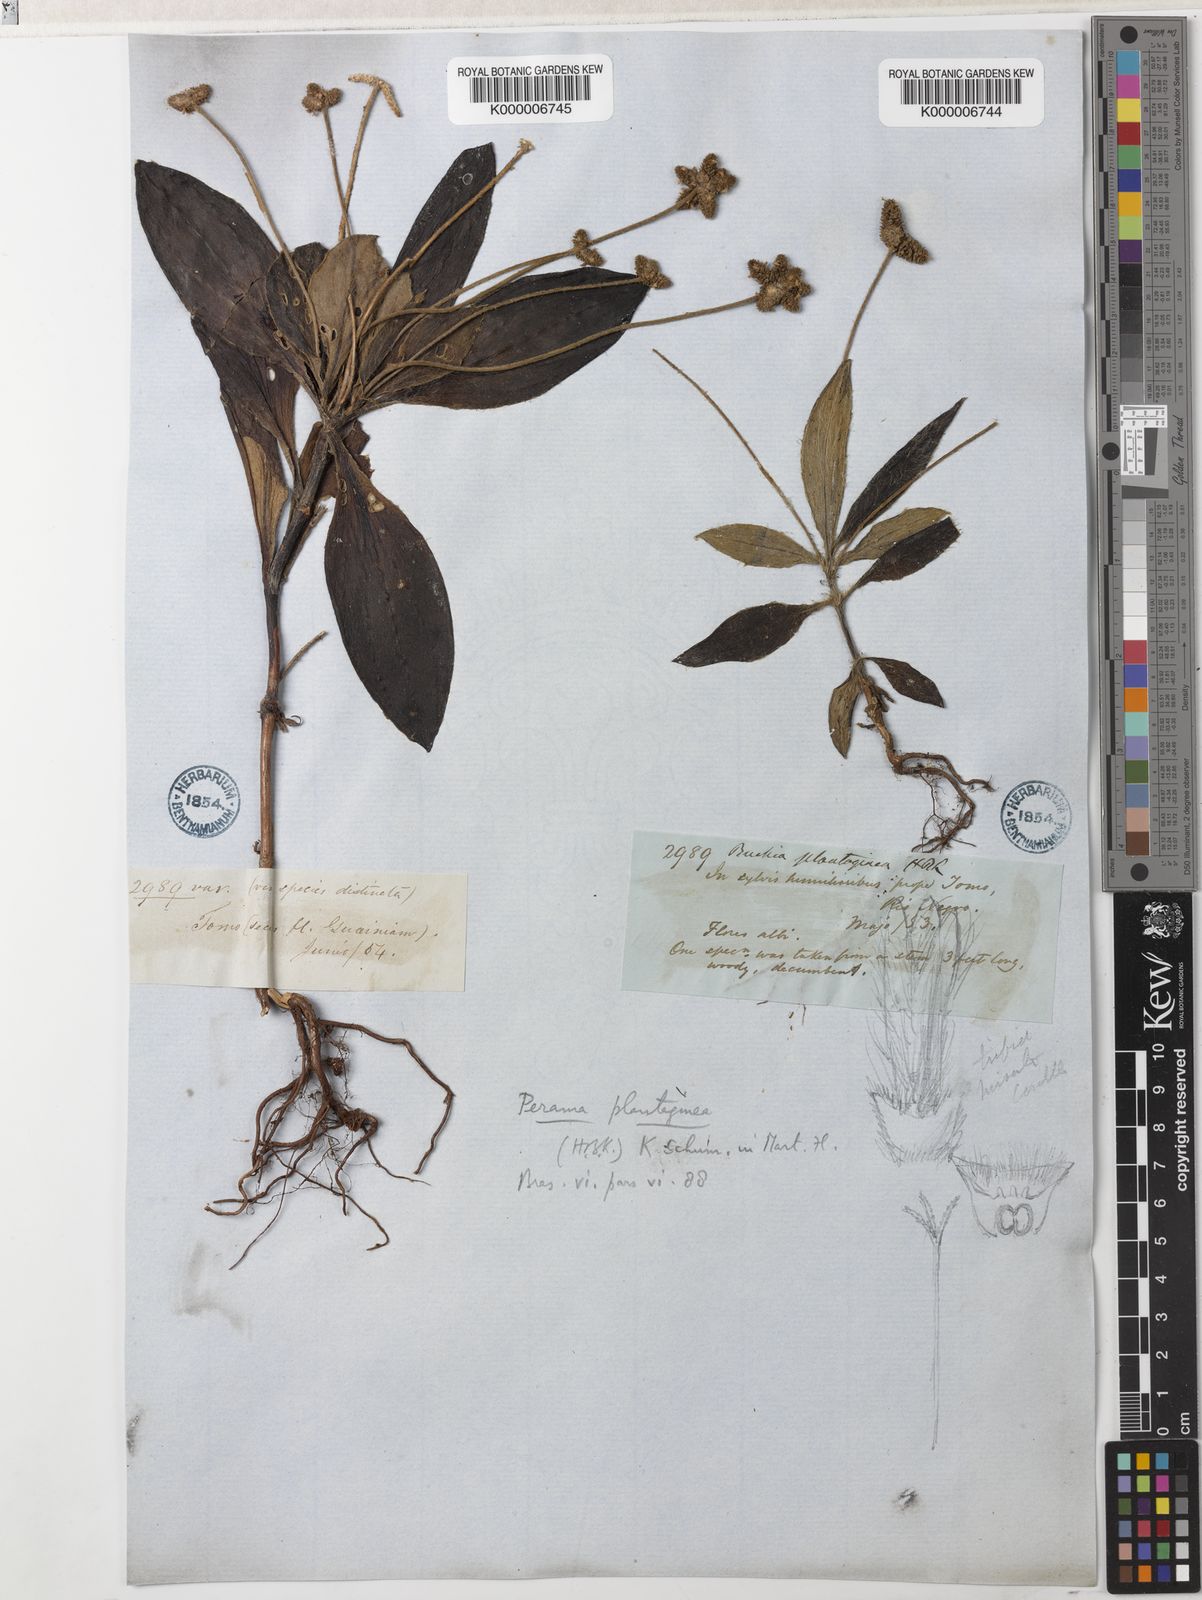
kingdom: Plantae
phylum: Tracheophyta
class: Magnoliopsida
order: Gentianales
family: Rubiaceae
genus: Perama
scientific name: Perama
